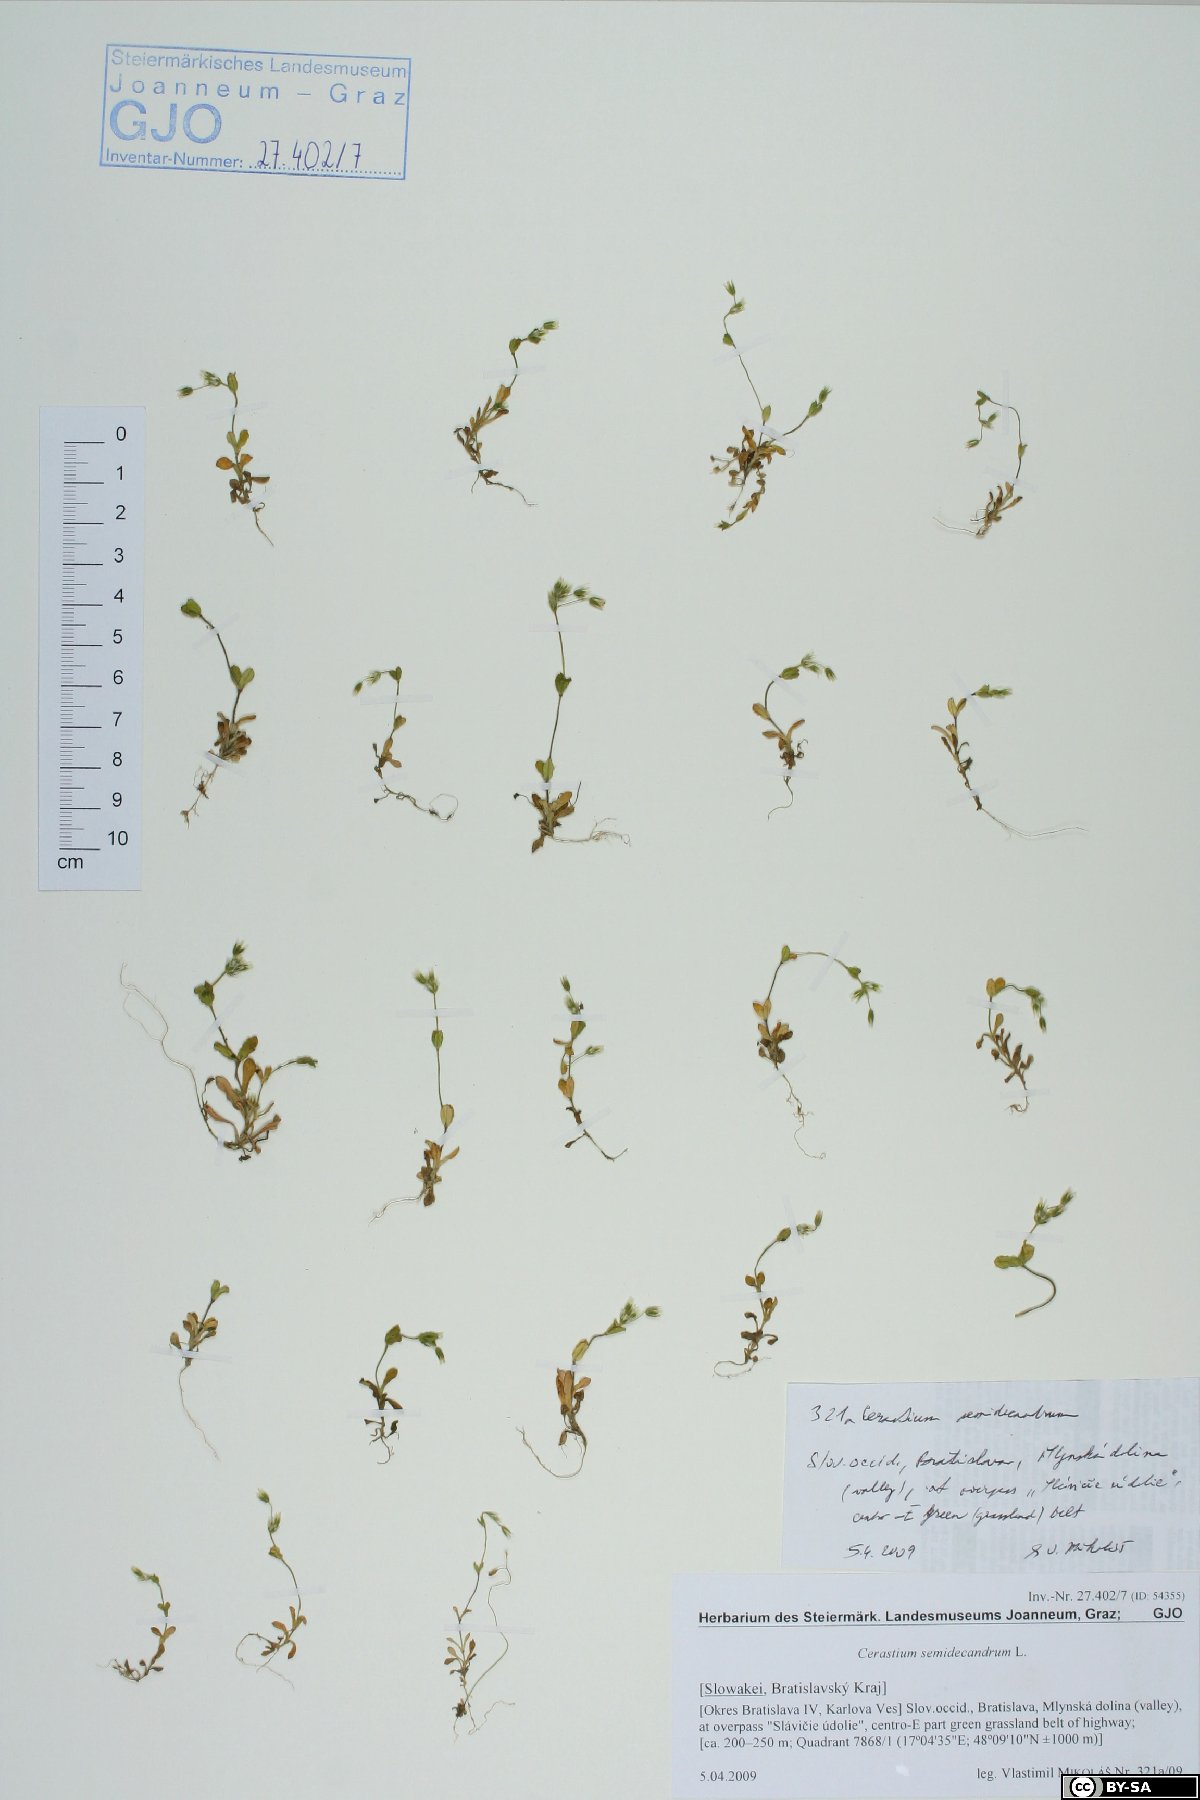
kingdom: Plantae
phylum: Tracheophyta
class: Magnoliopsida
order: Caryophyllales
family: Caryophyllaceae
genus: Cerastium
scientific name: Cerastium semidecandrum
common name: Little mouse-ear
